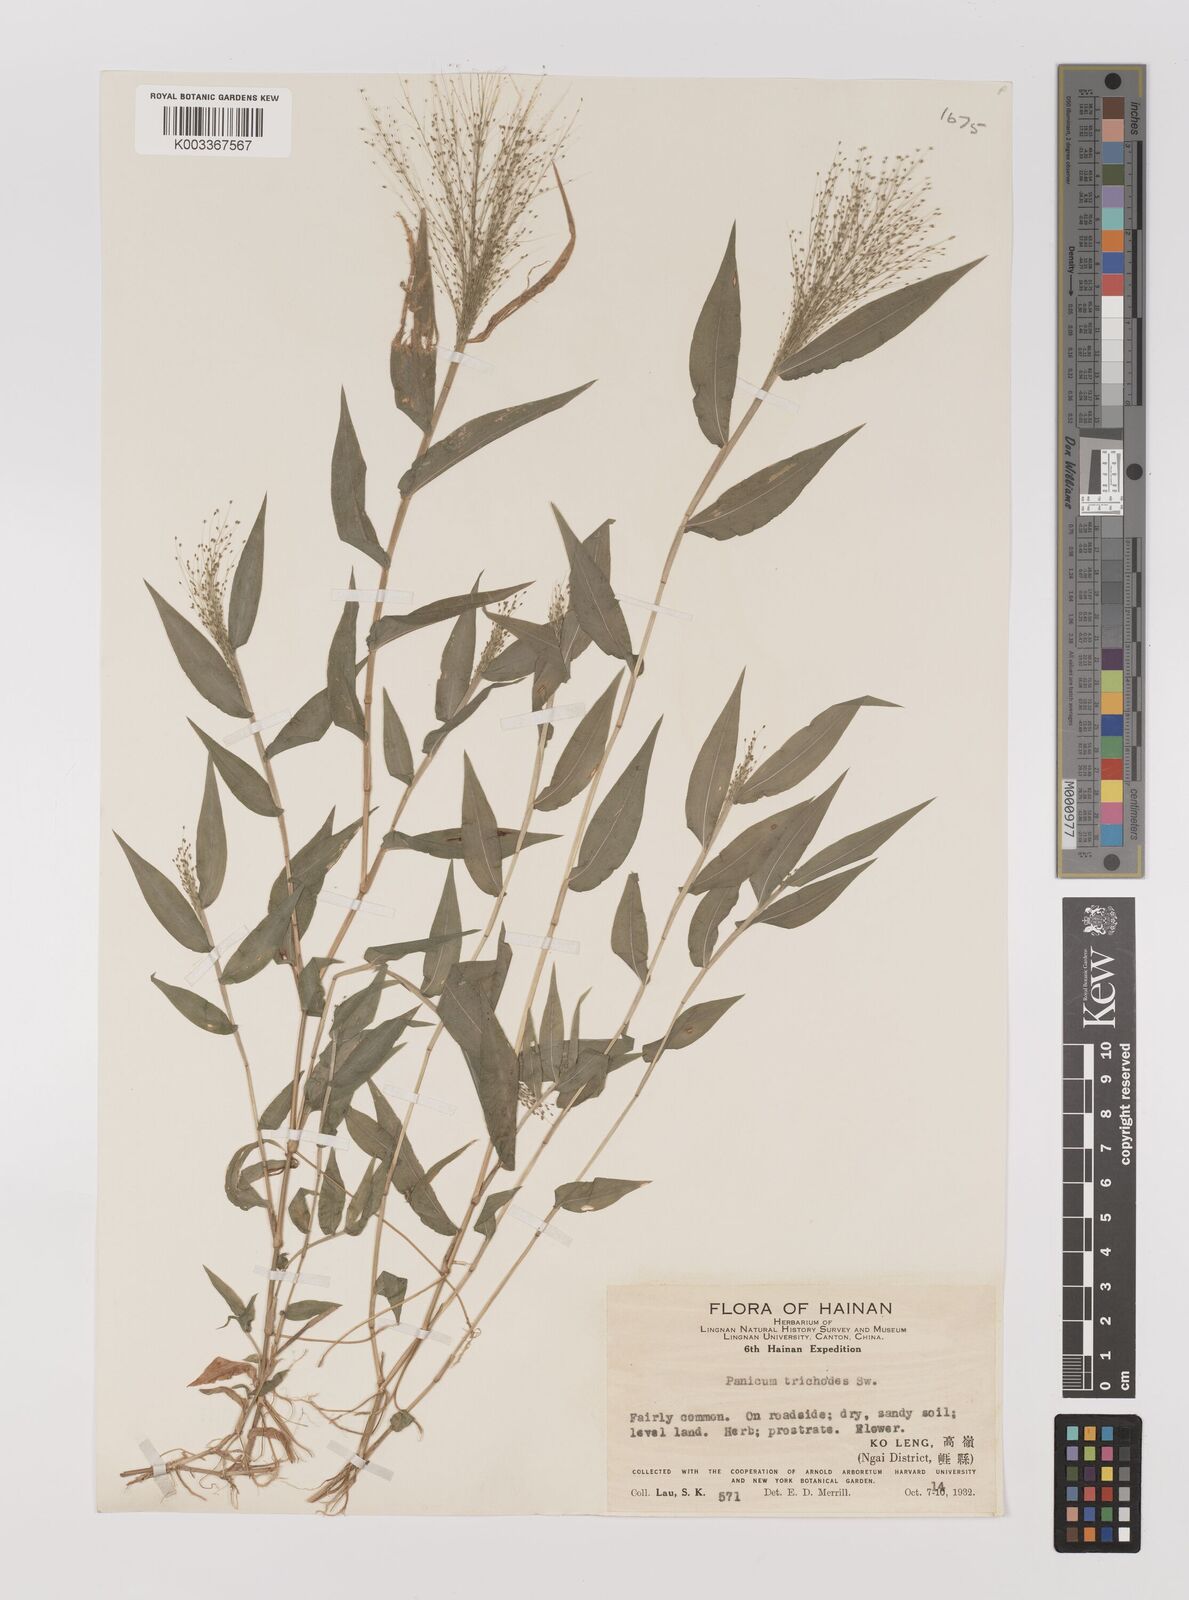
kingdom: Plantae
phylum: Tracheophyta
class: Liliopsida
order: Poales
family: Poaceae
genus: Panicum
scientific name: Panicum trichoides
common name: Tickle grass
